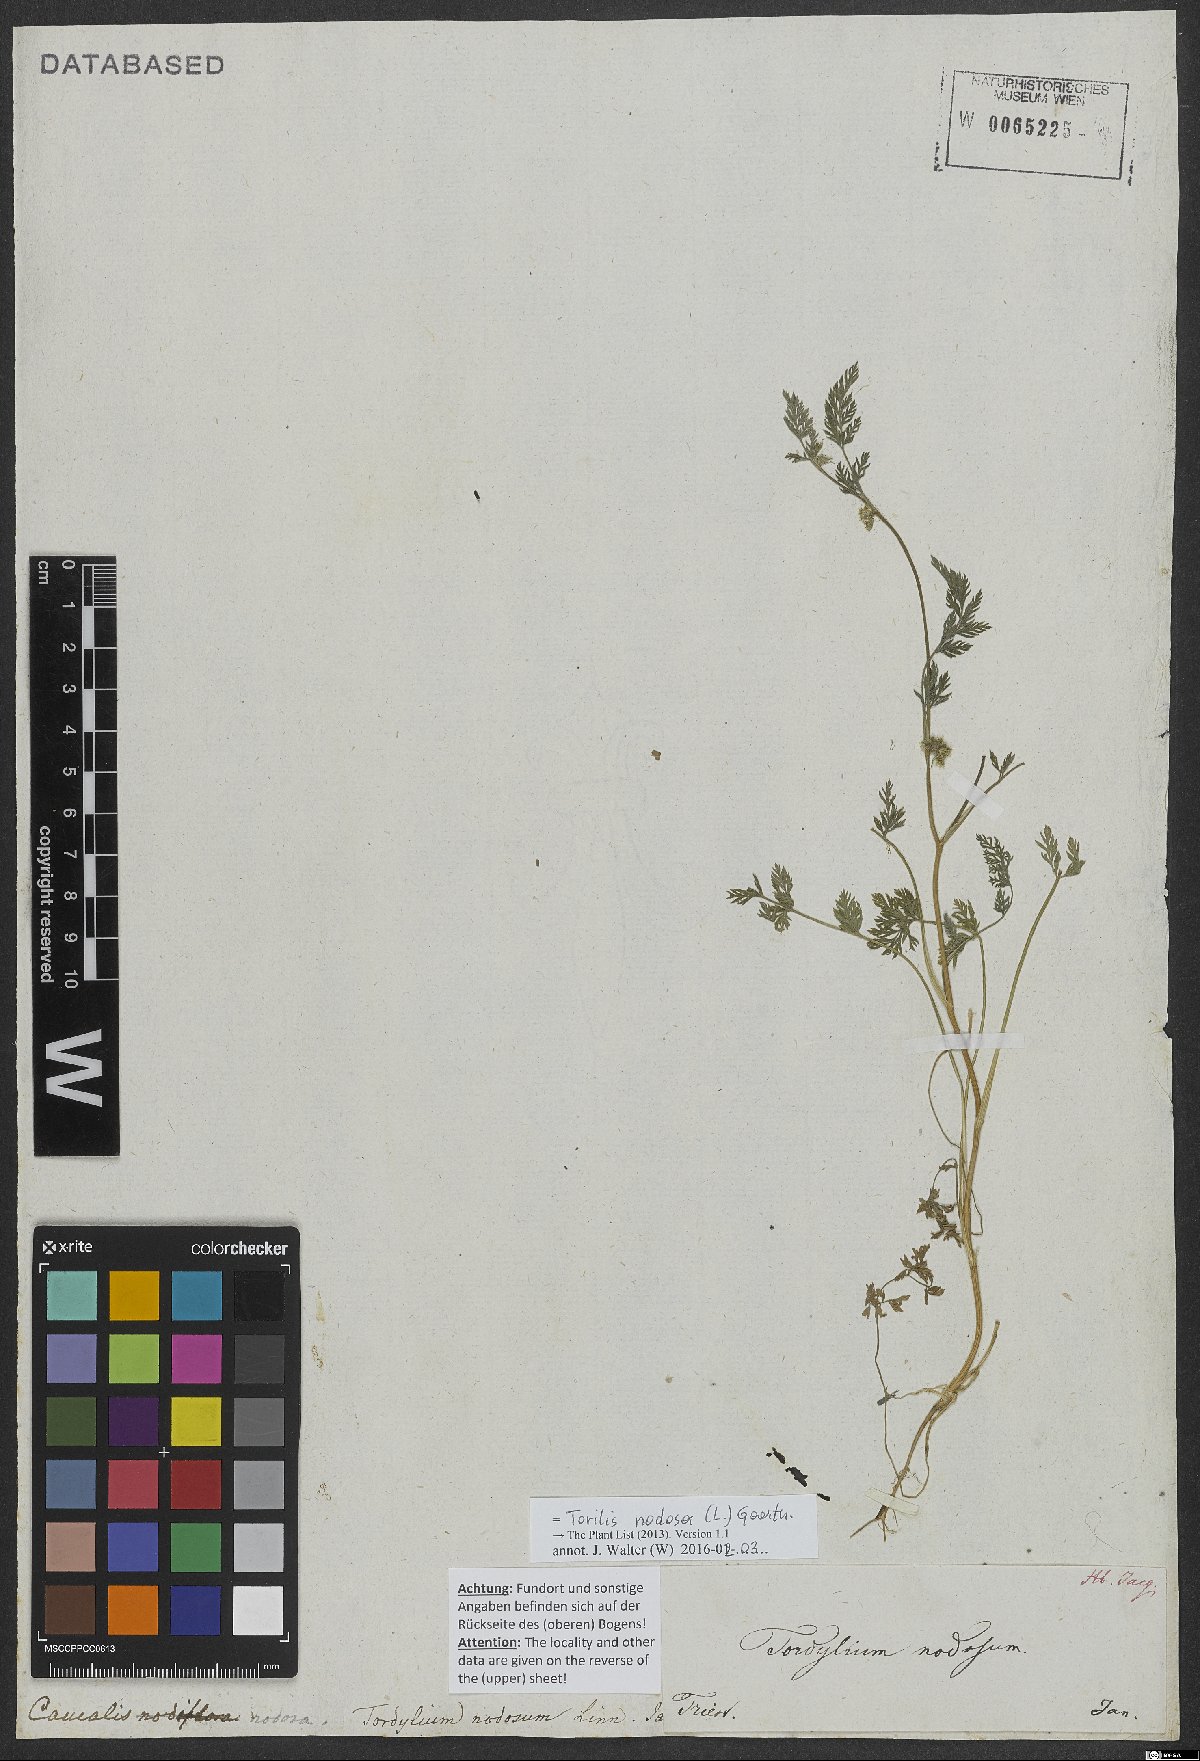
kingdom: Plantae
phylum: Tracheophyta
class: Magnoliopsida
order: Apiales
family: Apiaceae
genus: Torilis
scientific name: Torilis nodosa
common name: Knotted hedge-parsley
